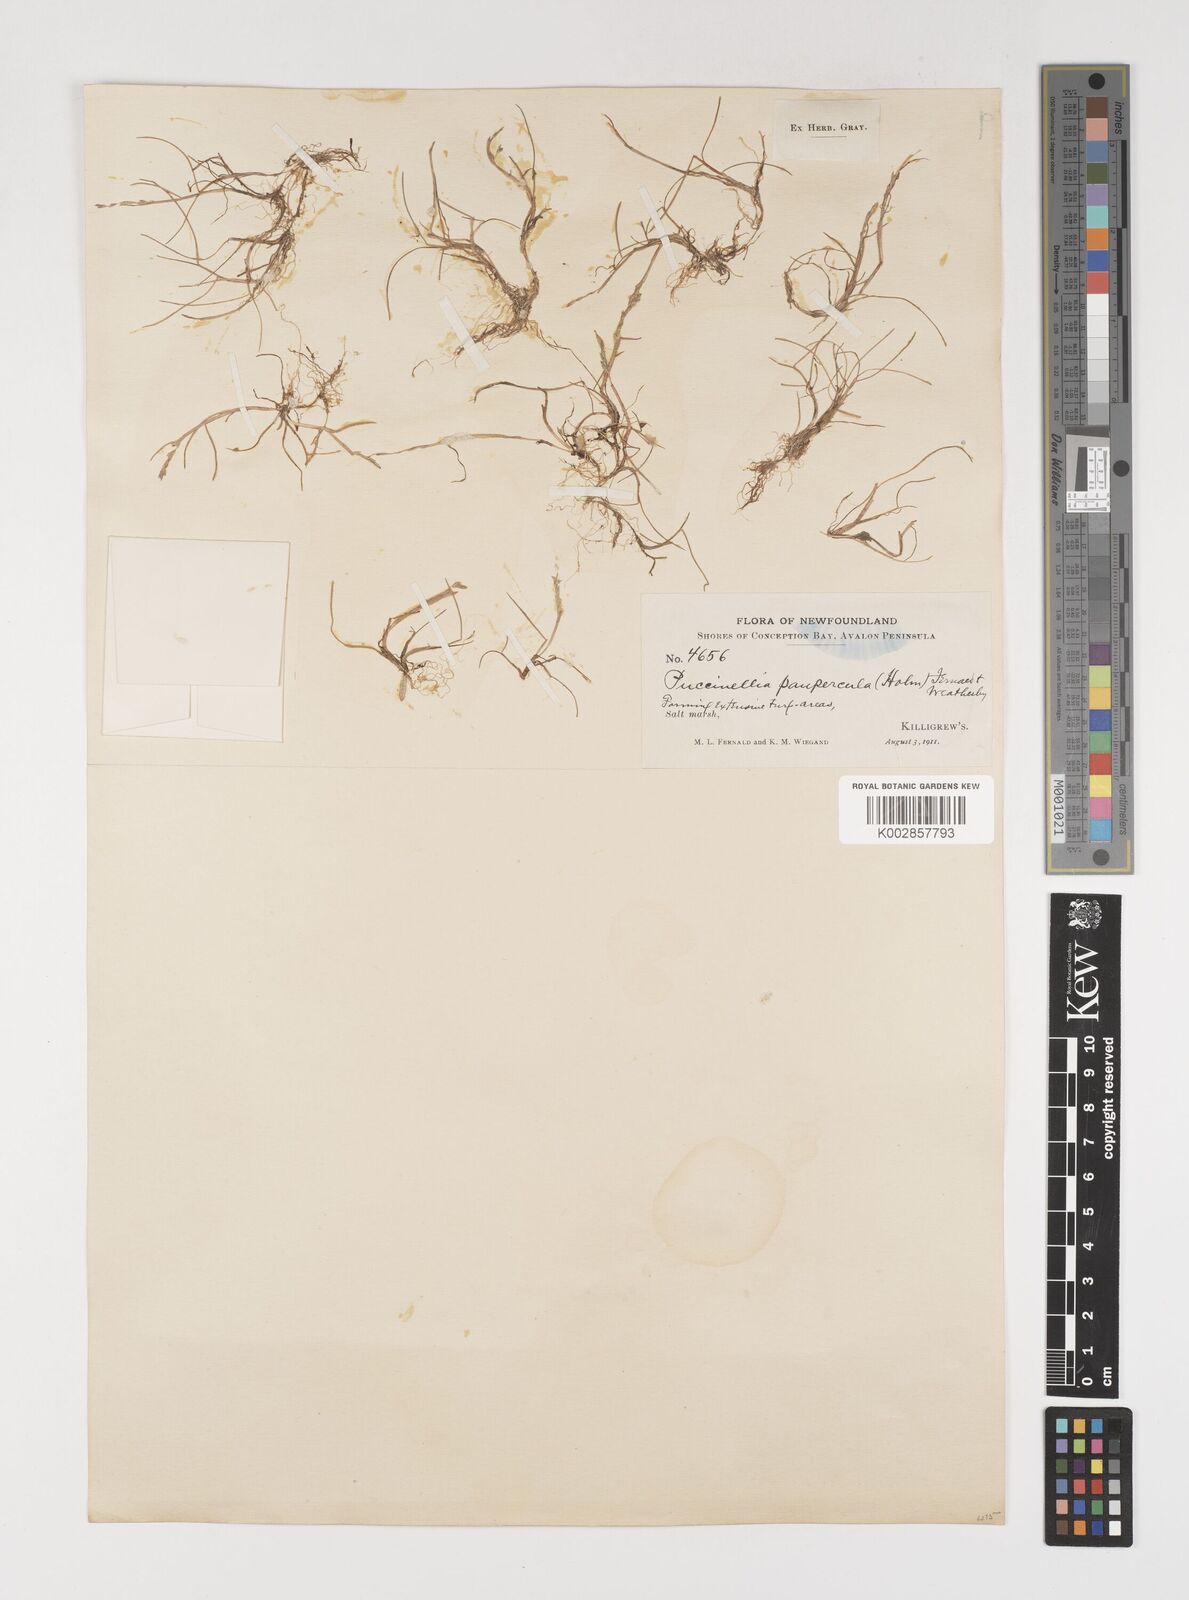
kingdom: Plantae
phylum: Tracheophyta
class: Liliopsida
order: Poales
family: Poaceae
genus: Puccinellia
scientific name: Puccinellia pumila
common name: Dwarf alkaligrass
